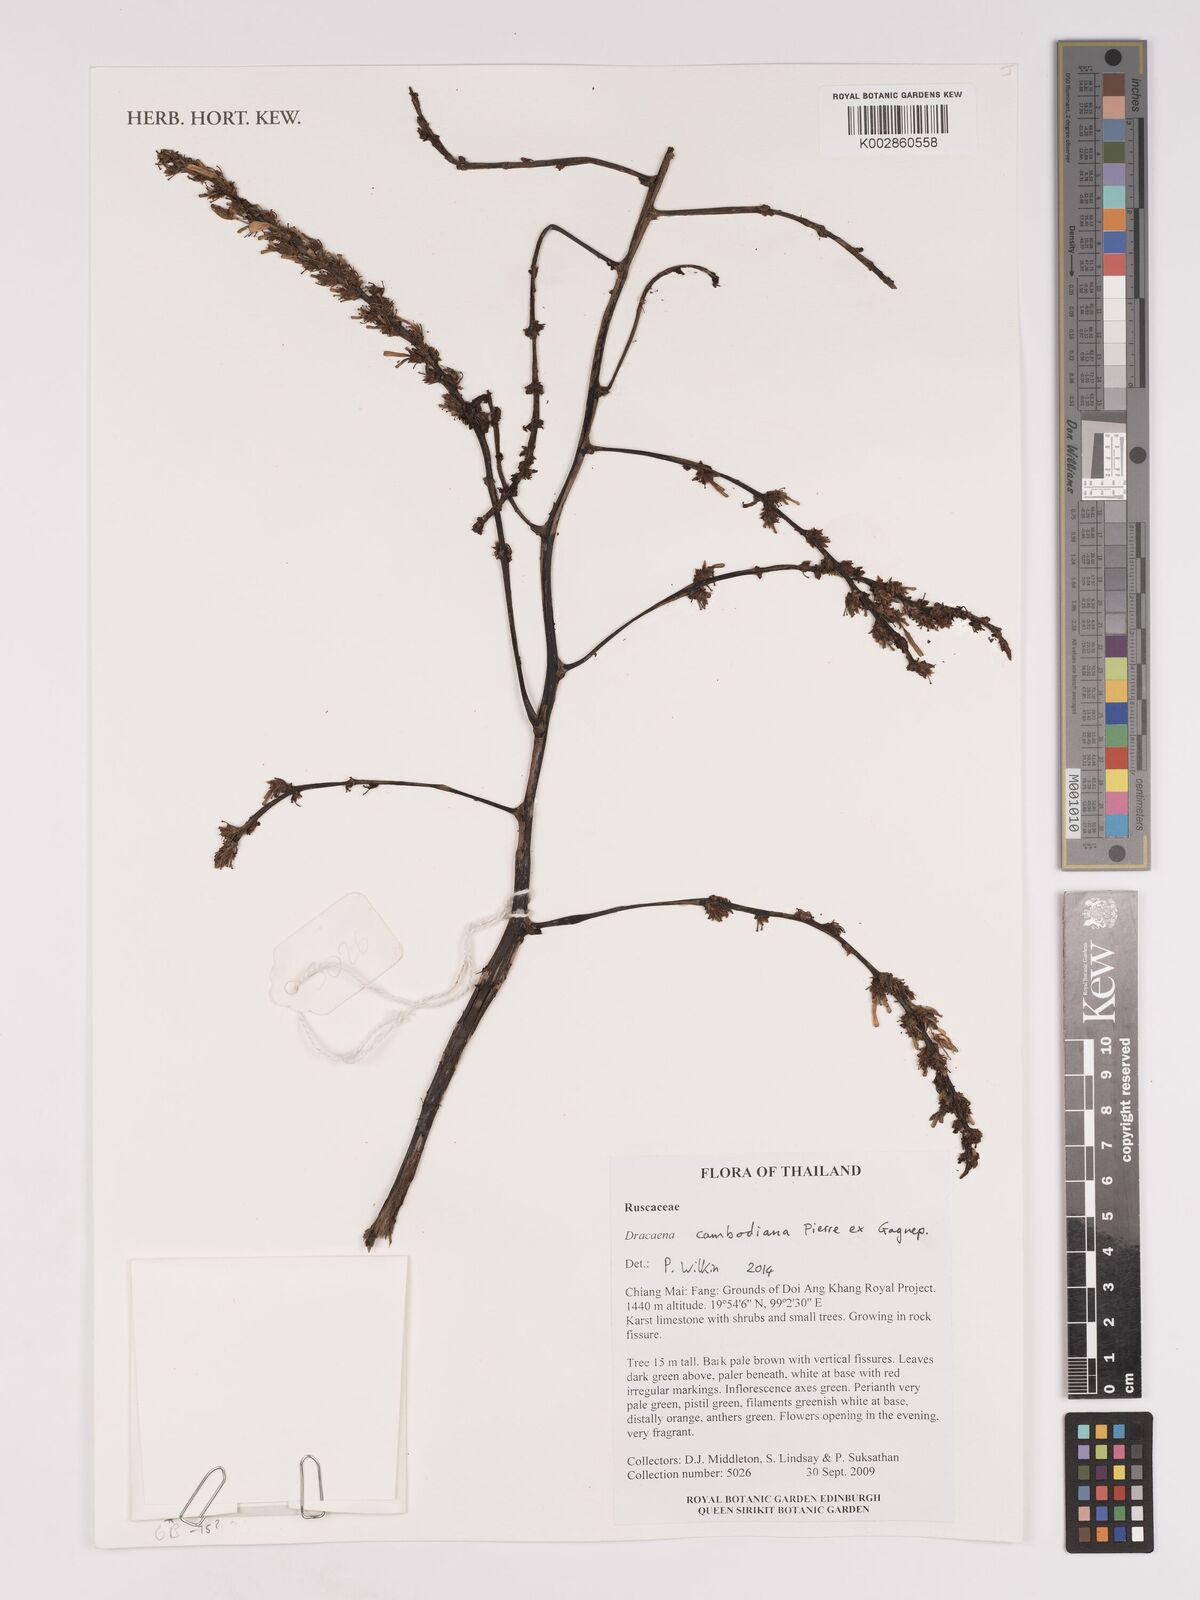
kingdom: Plantae
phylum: Tracheophyta
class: Liliopsida
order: Asparagales
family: Asparagaceae
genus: Dracaena
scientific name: Dracaena cambodiana
